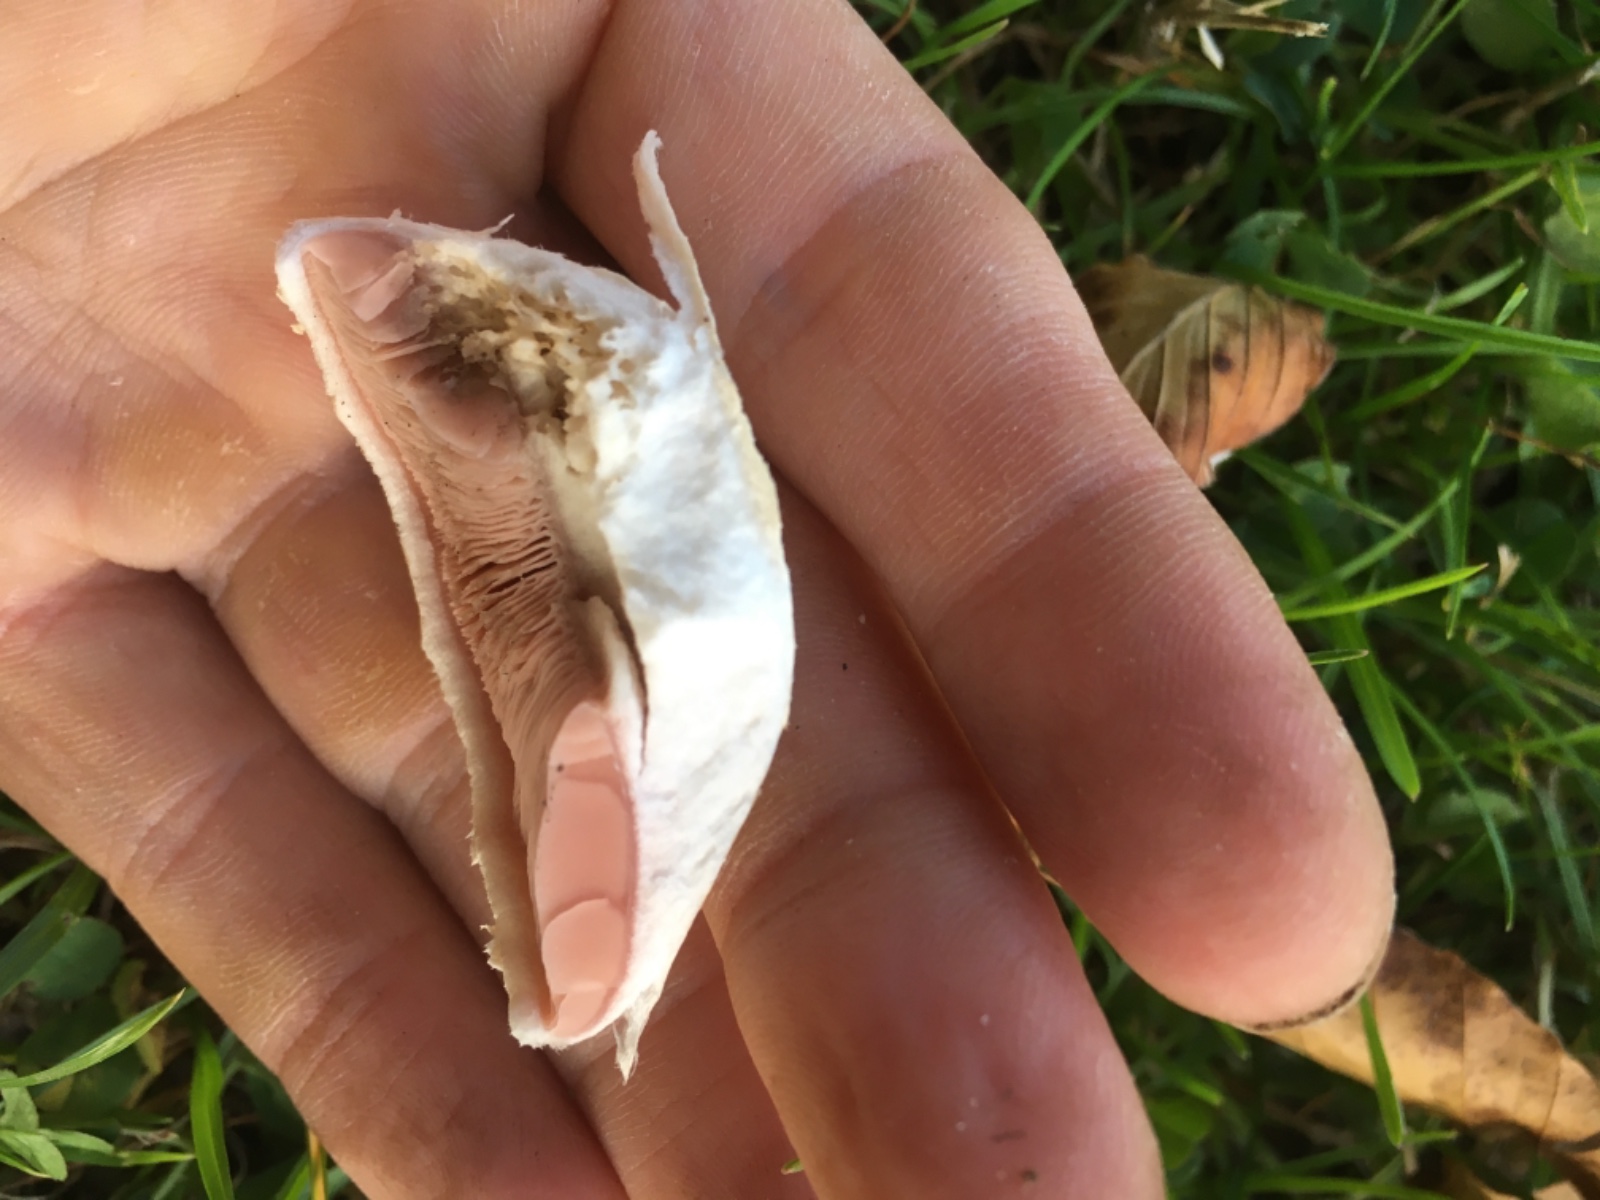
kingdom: Fungi
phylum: Basidiomycota
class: Agaricomycetes
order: Agaricales
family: Agaricaceae
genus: Agaricus
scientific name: Agaricus
